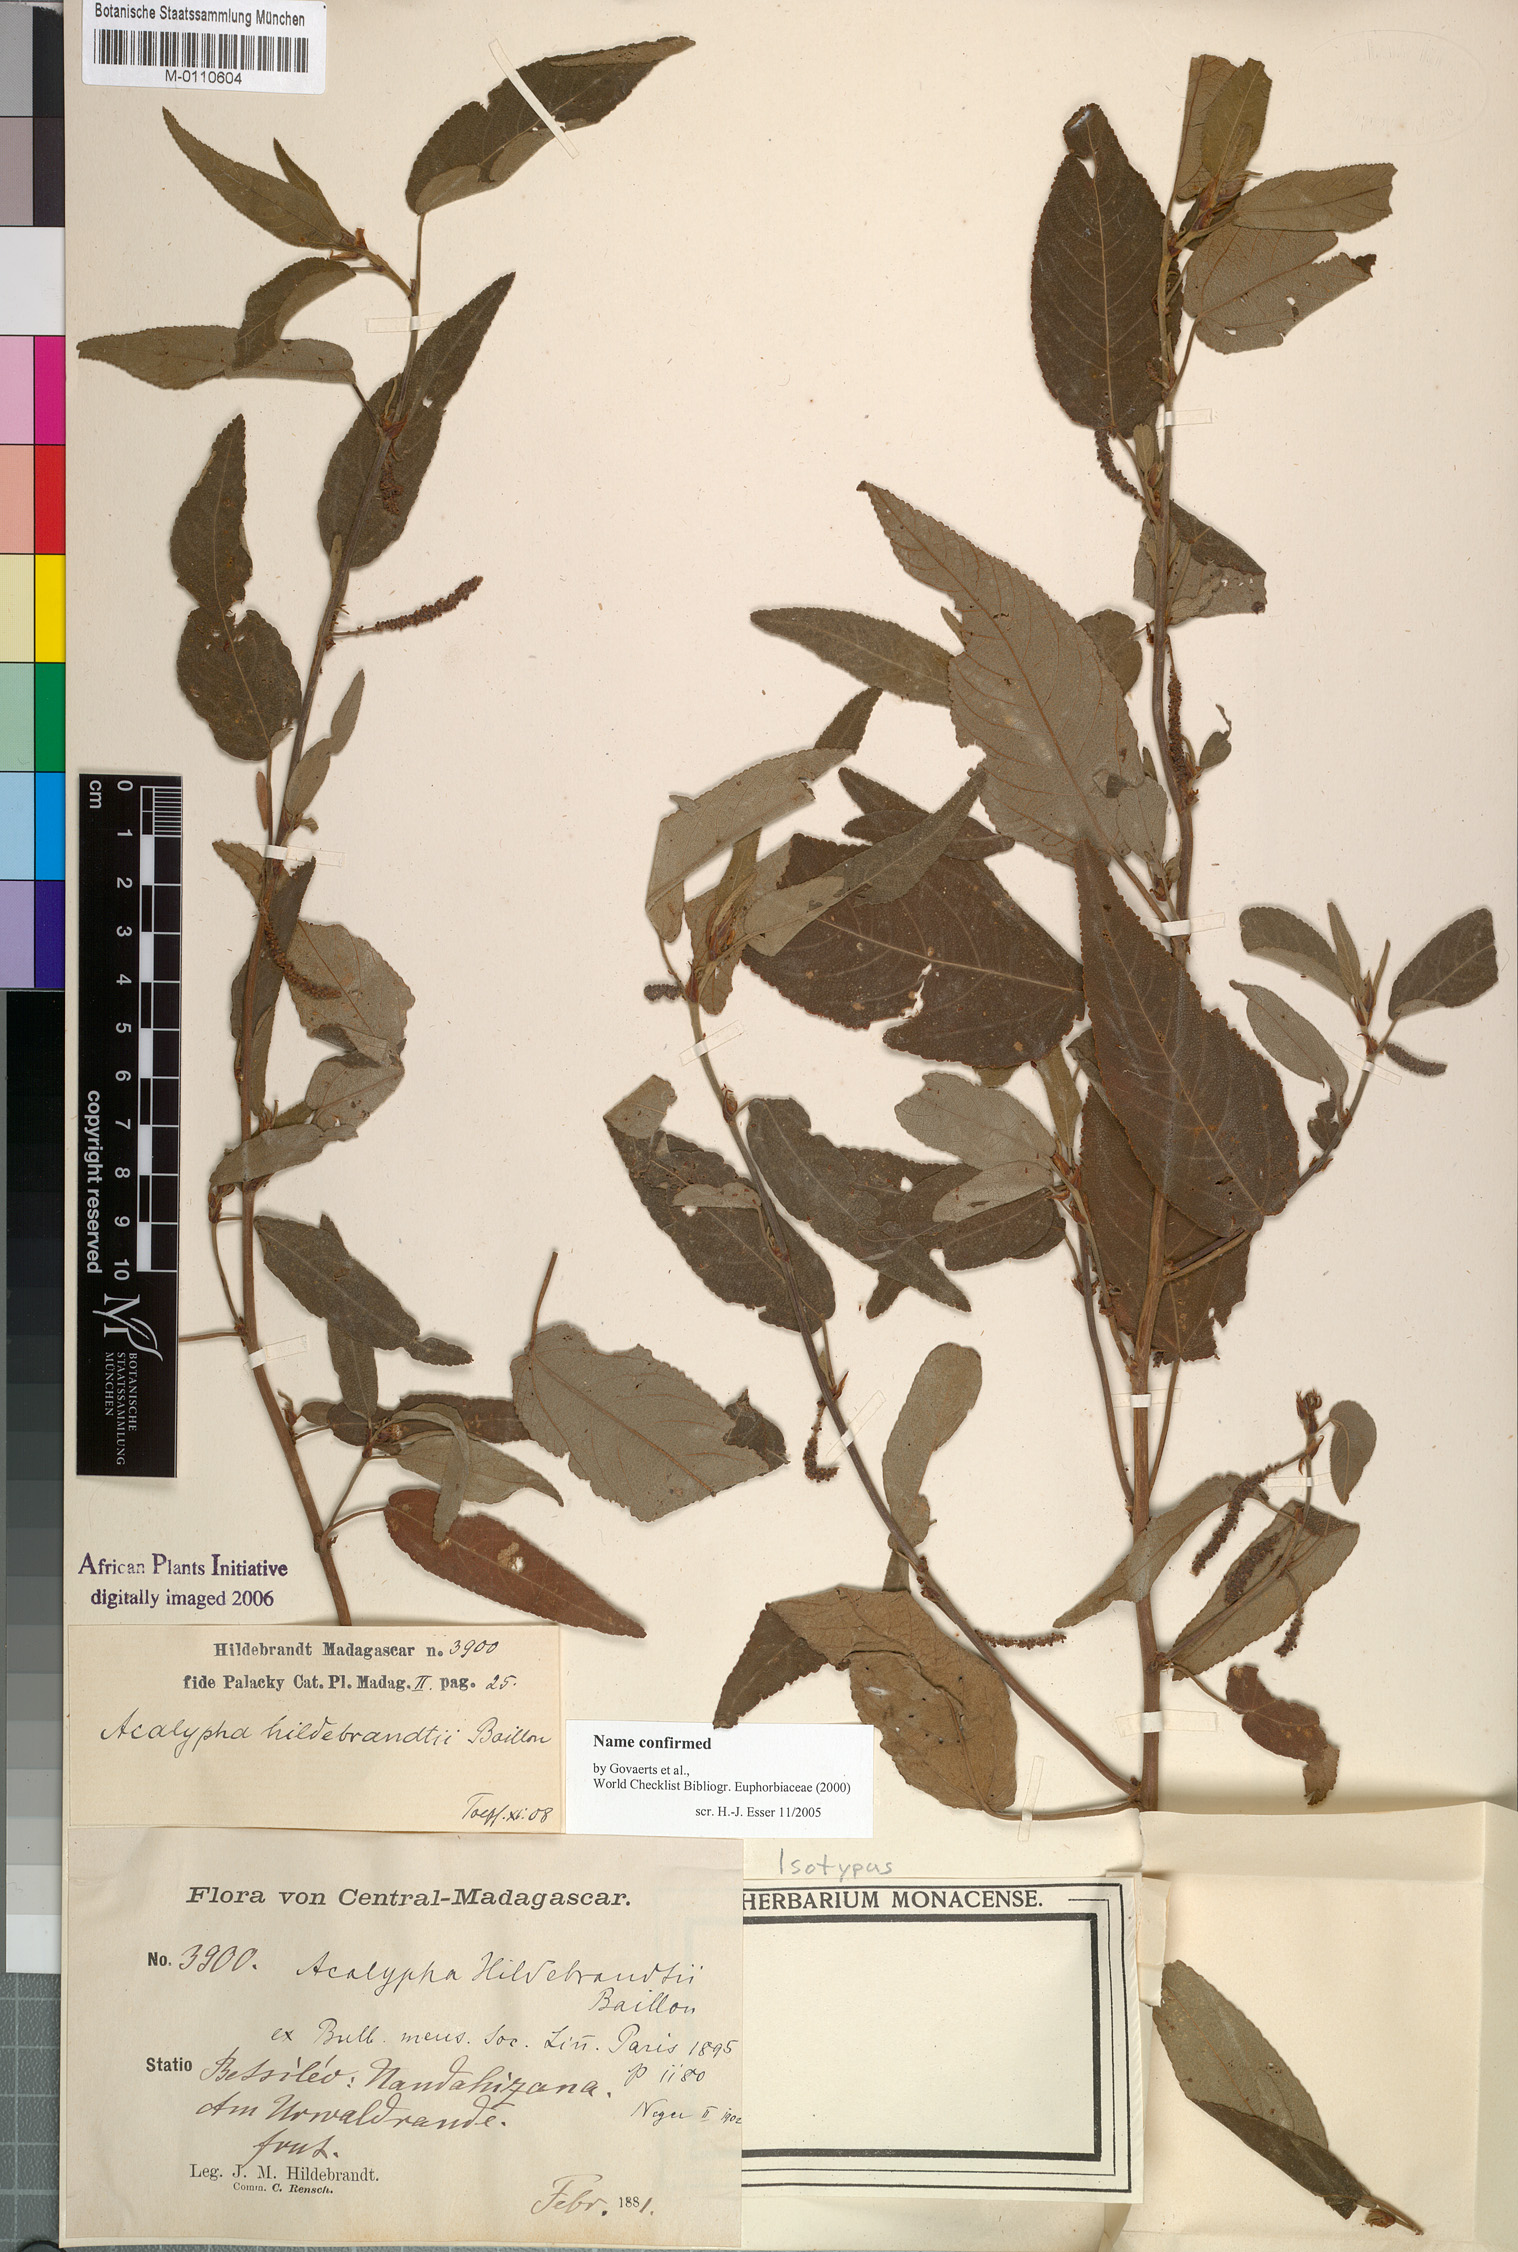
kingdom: Plantae
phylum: Tracheophyta
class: Magnoliopsida
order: Malpighiales
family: Euphorbiaceae
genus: Acalypha
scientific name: Acalypha radula
